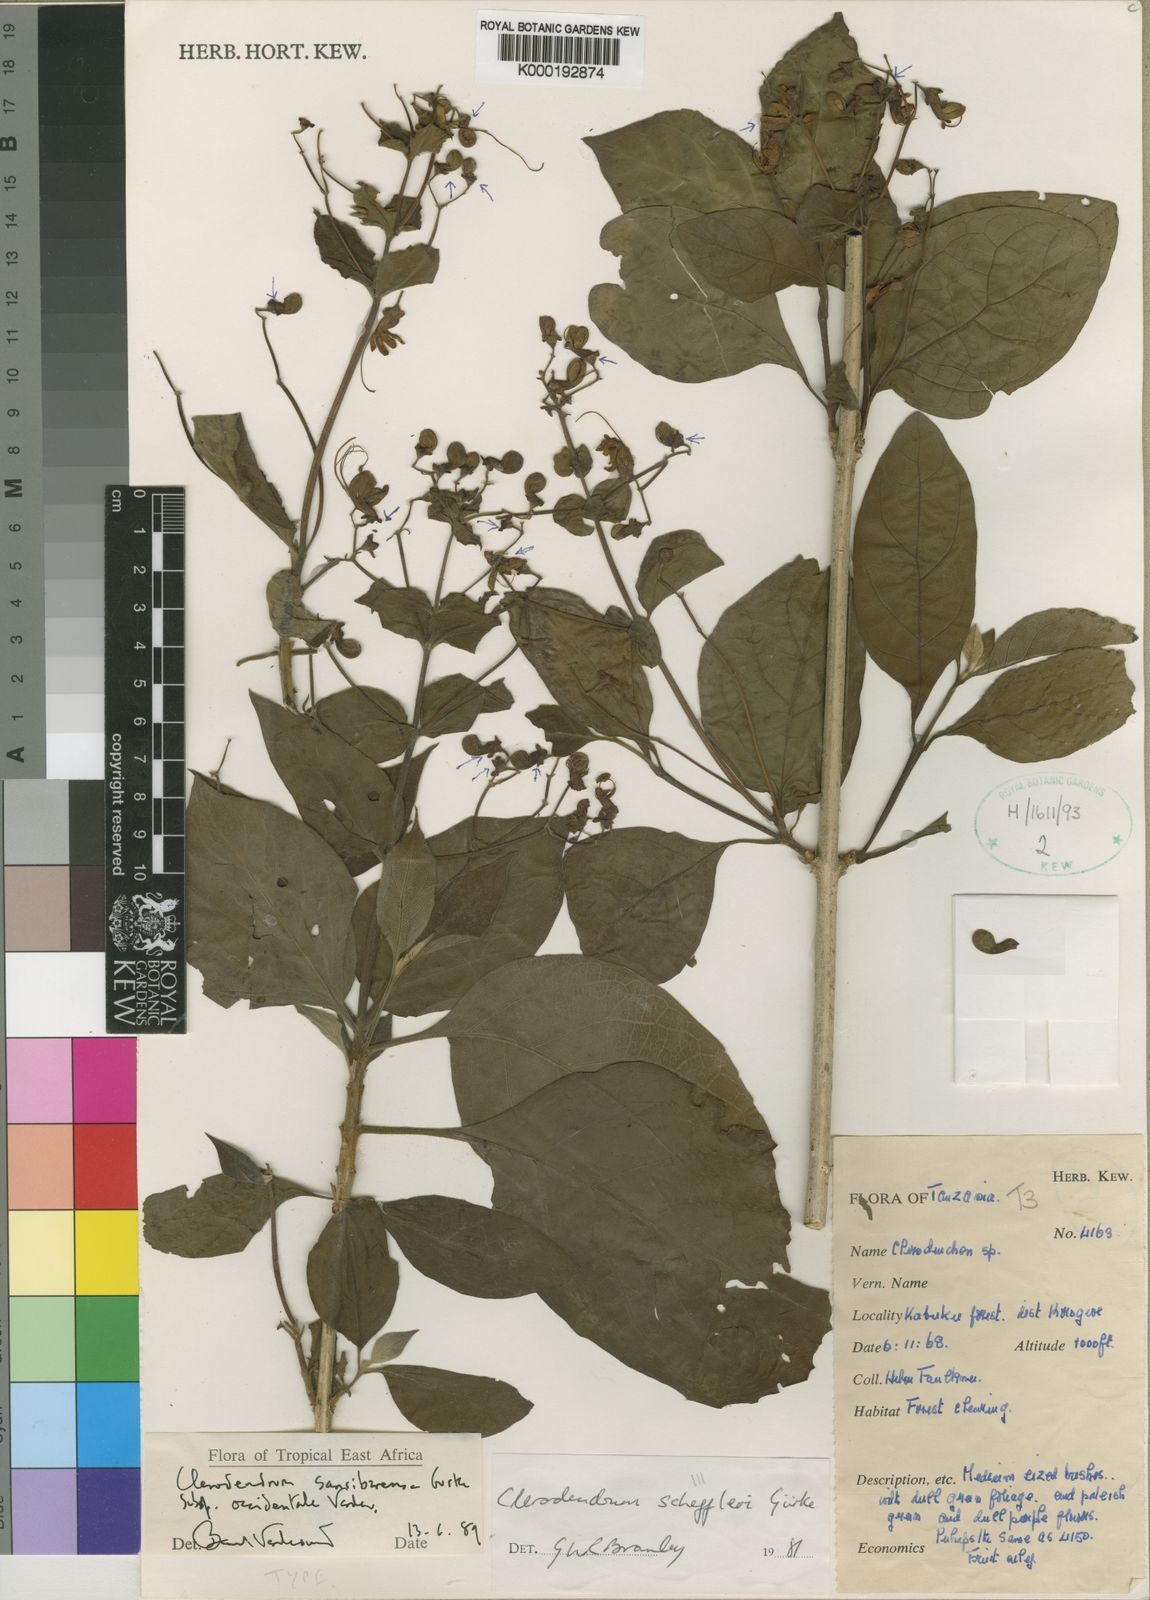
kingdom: Plantae
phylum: Tracheophyta
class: Magnoliopsida
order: Lamiales
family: Lamiaceae
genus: Clerodendrum
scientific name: Clerodendrum
